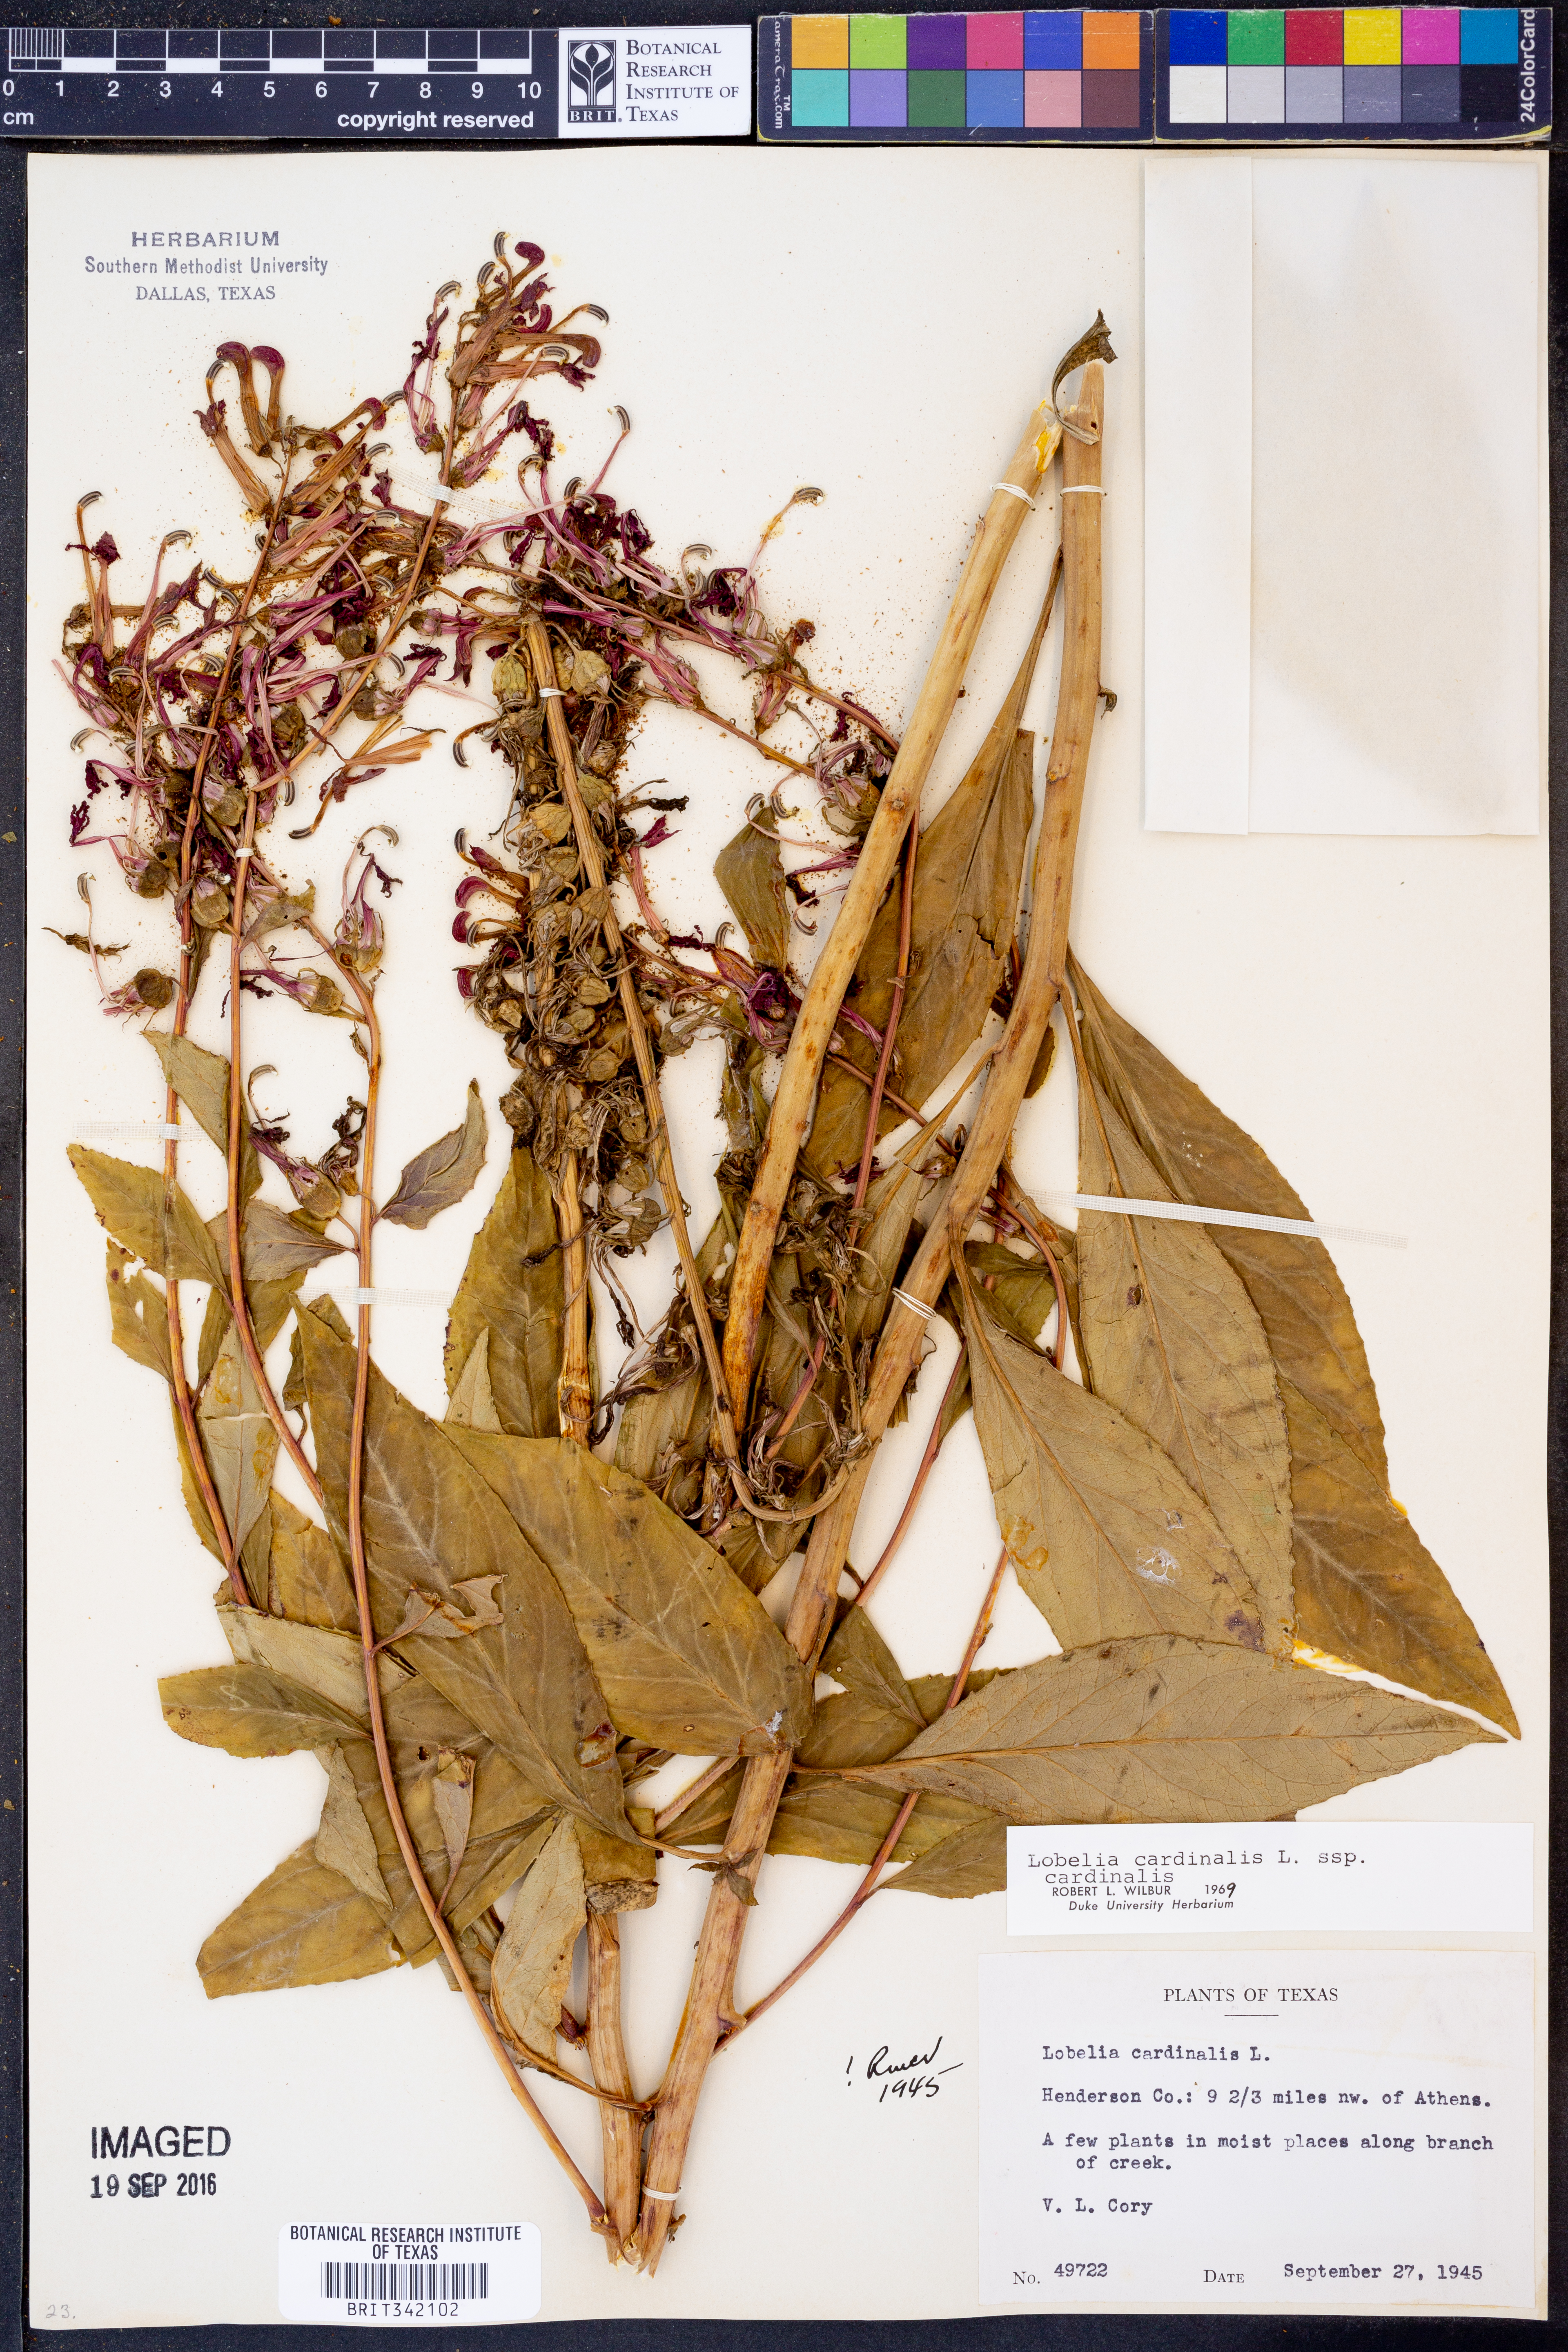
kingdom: Plantae
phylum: Tracheophyta
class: Magnoliopsida
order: Asterales
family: Campanulaceae
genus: Lobelia
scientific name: Lobelia cardinalis
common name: Cardinal flower
